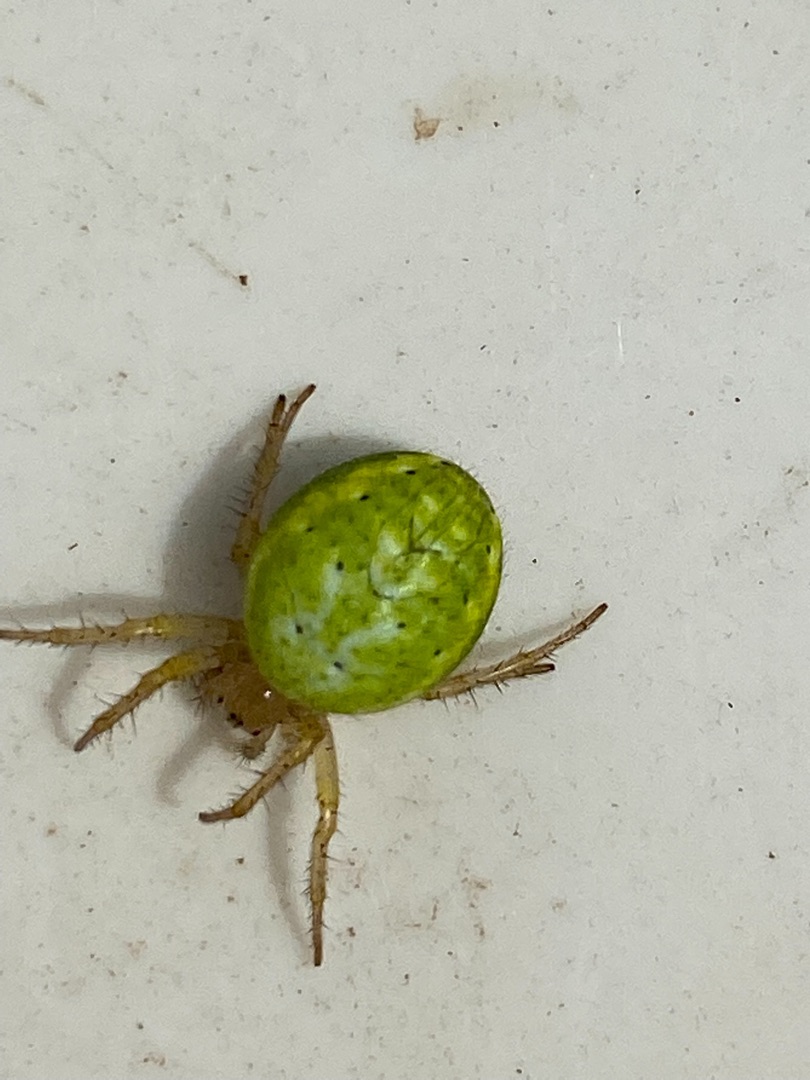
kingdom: Animalia
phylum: Arthropoda
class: Arachnida
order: Araneae
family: Araneidae
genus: Araniella
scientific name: Araniella
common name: Agurkeedderkopslægten
